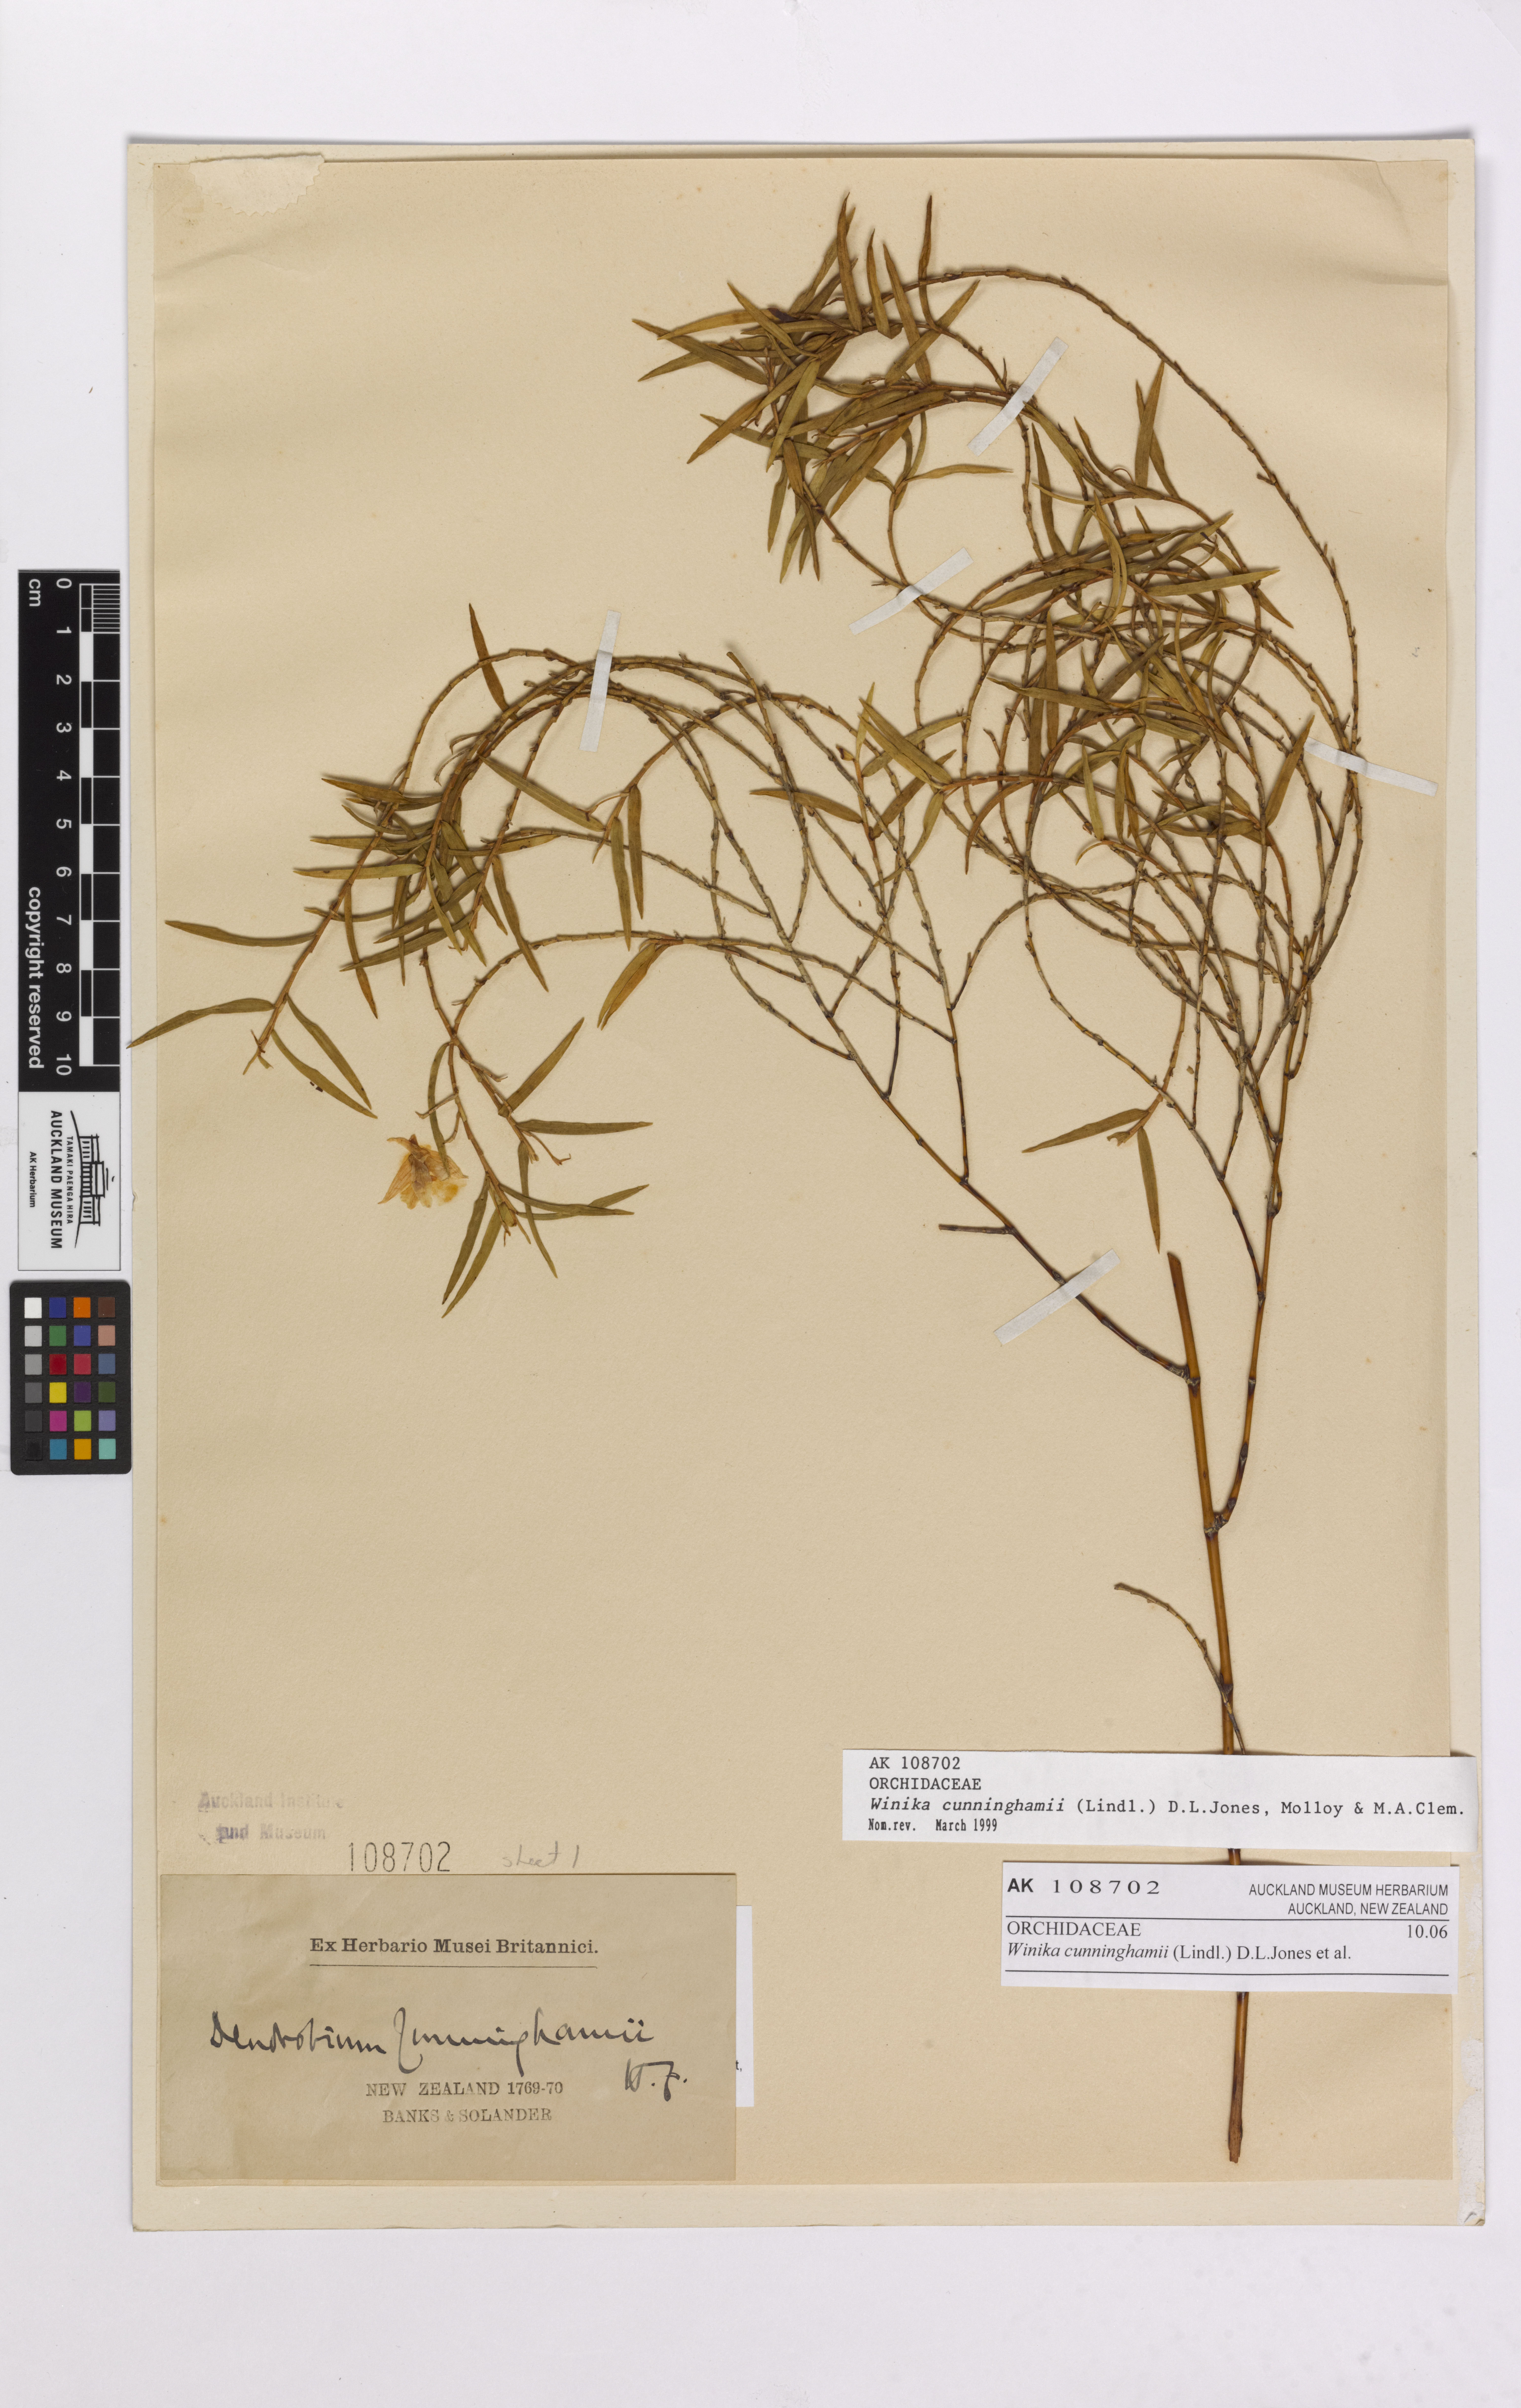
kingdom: Plantae
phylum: Tracheophyta
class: Liliopsida
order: Asparagales
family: Orchidaceae
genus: Dendrobium
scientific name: Dendrobium cunninghamii
